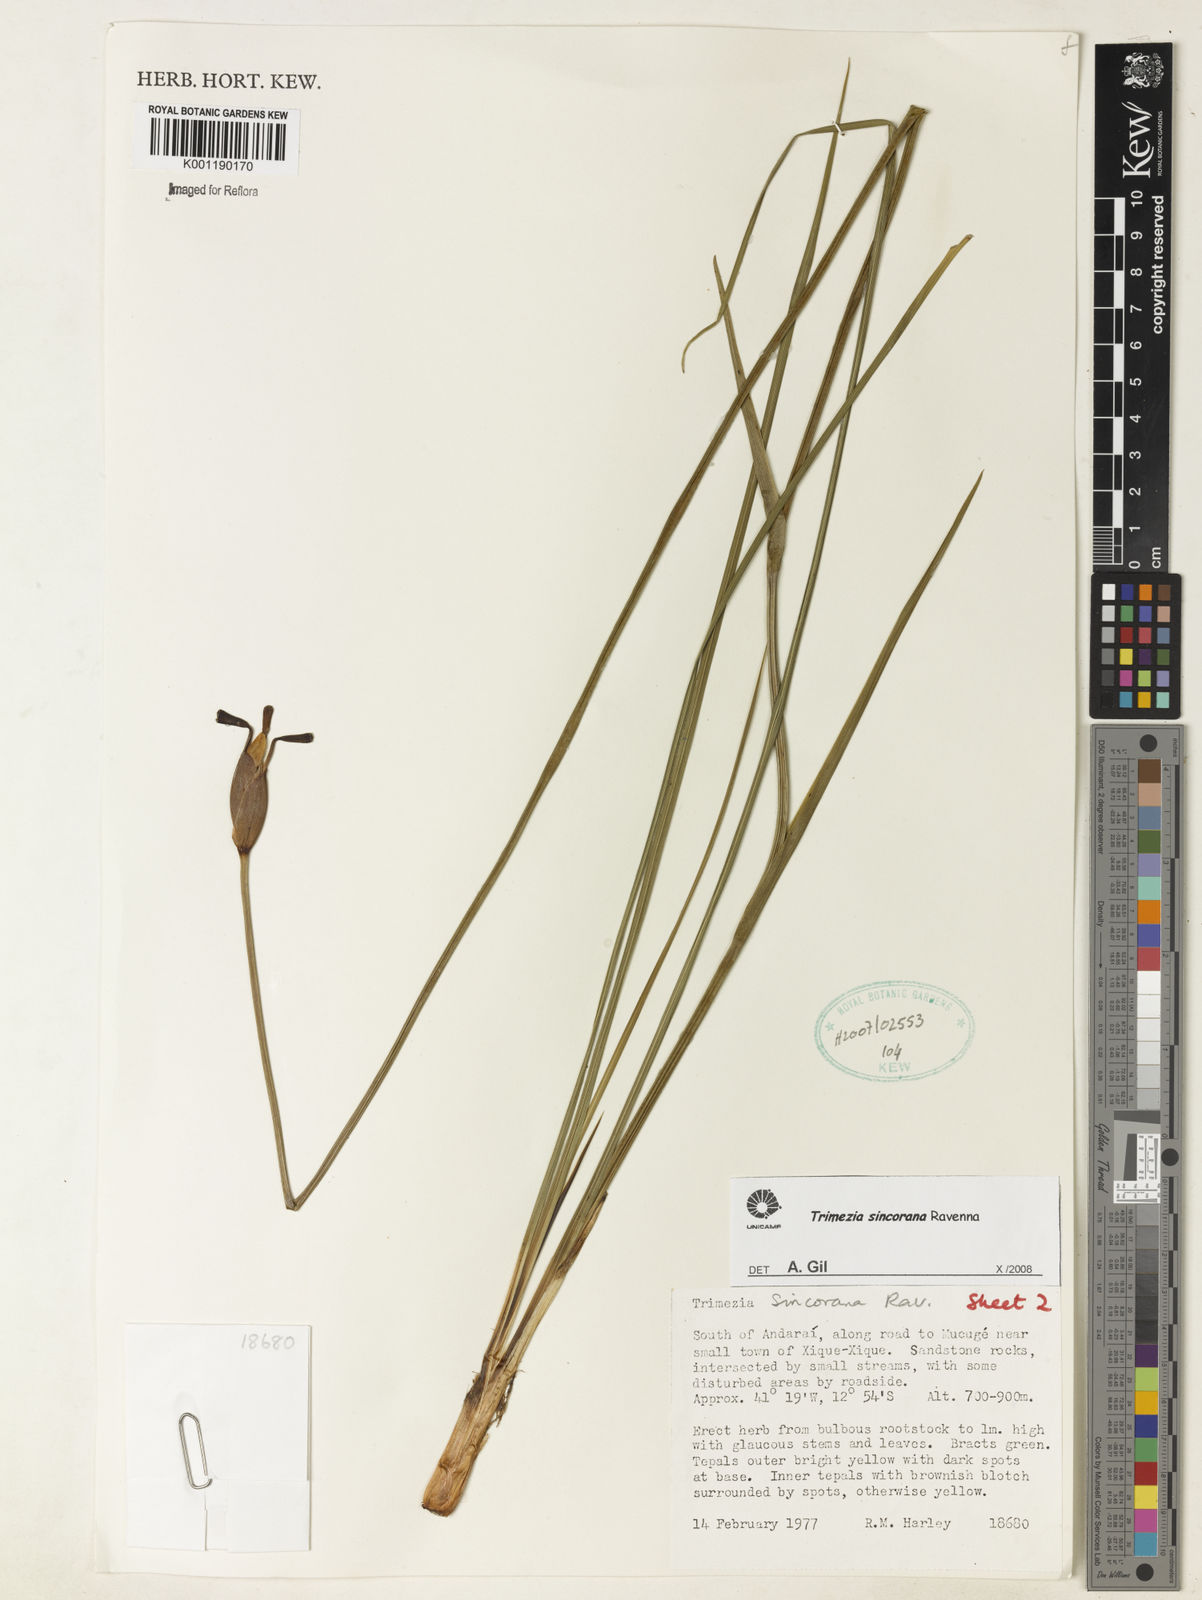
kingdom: Plantae
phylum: Tracheophyta
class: Liliopsida
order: Asparagales
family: Iridaceae
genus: Trimezia
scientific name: Trimezia spathata
